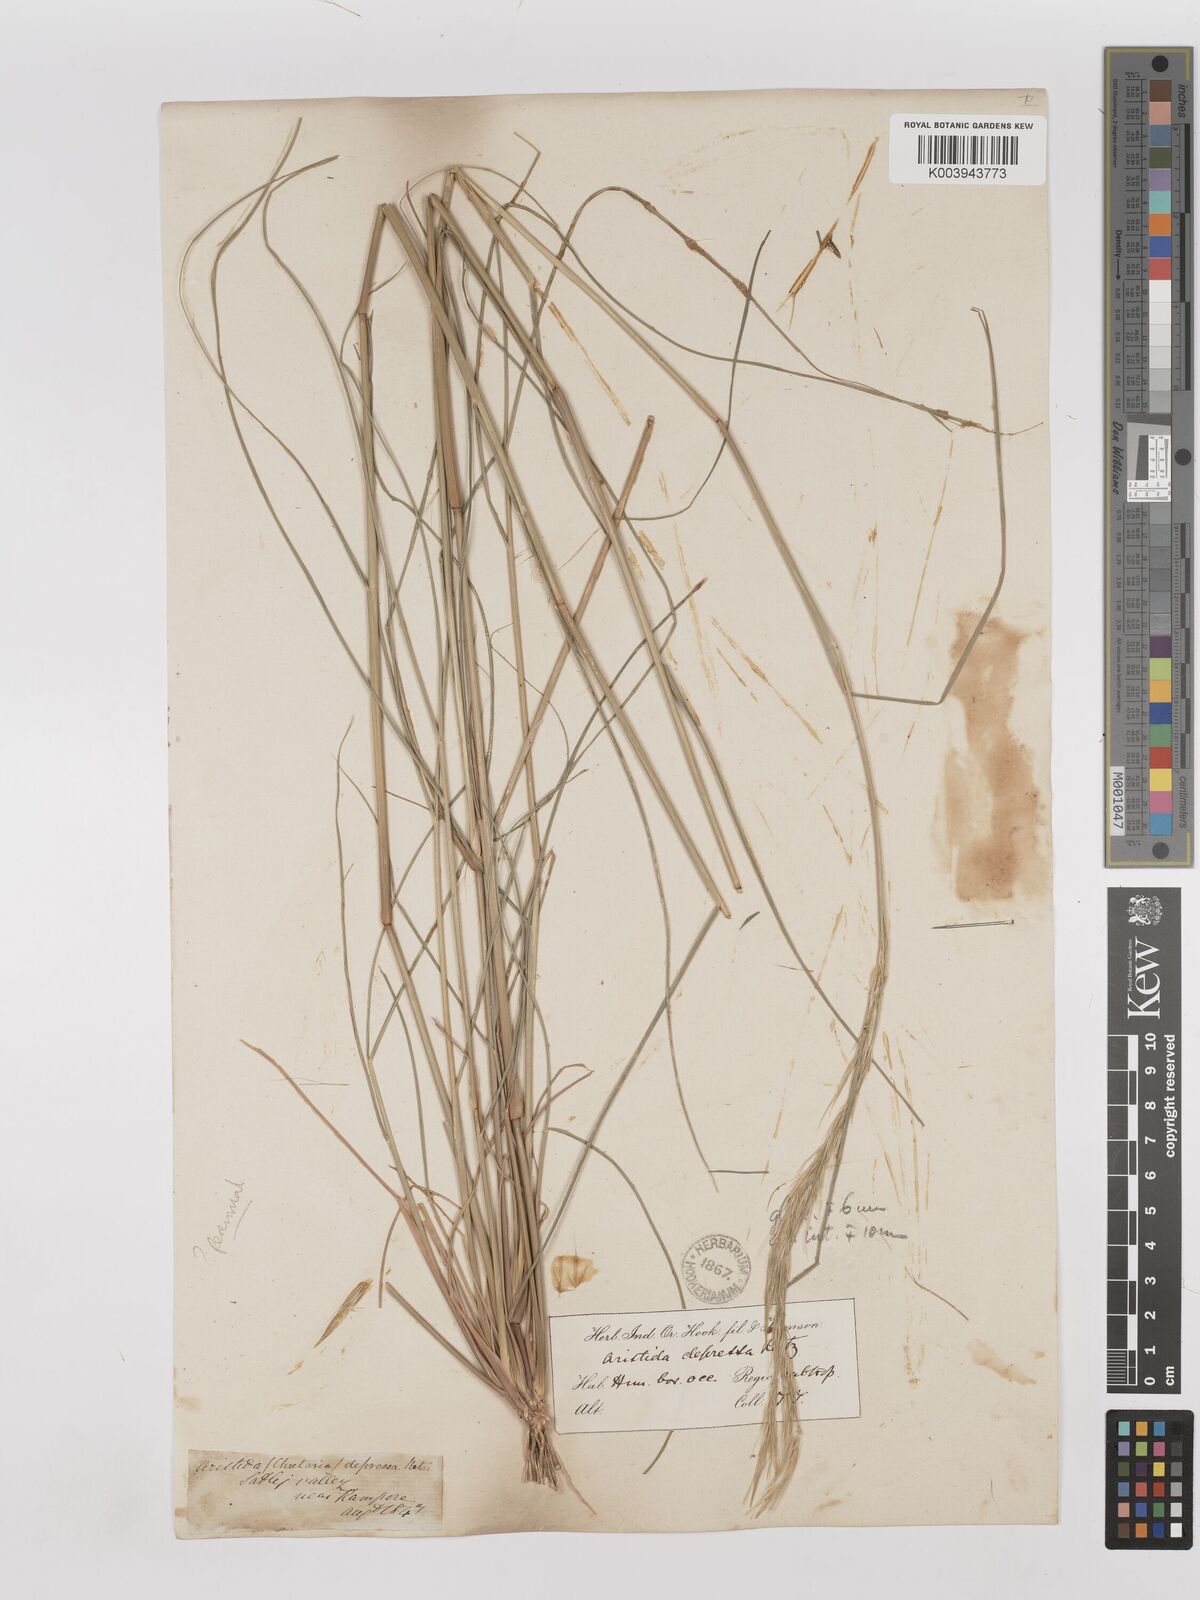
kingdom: Plantae
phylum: Tracheophyta
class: Liliopsida
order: Poales
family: Poaceae
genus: Aristida
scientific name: Aristida adscensionis
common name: Sixweeks threeawn
